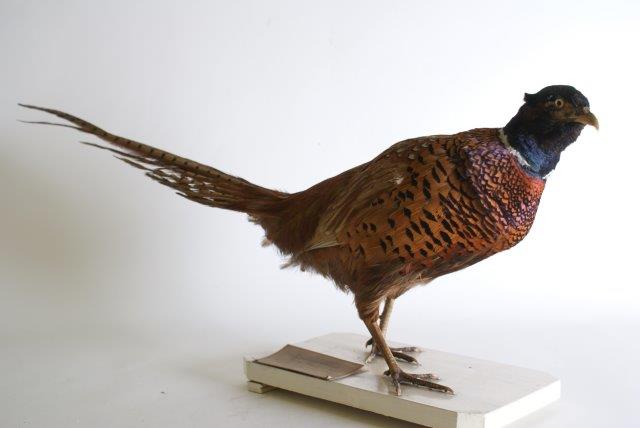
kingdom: Animalia
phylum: Chordata
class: Aves
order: Galliformes
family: Phasianidae
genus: Phasianus
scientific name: Phasianus colchicus
